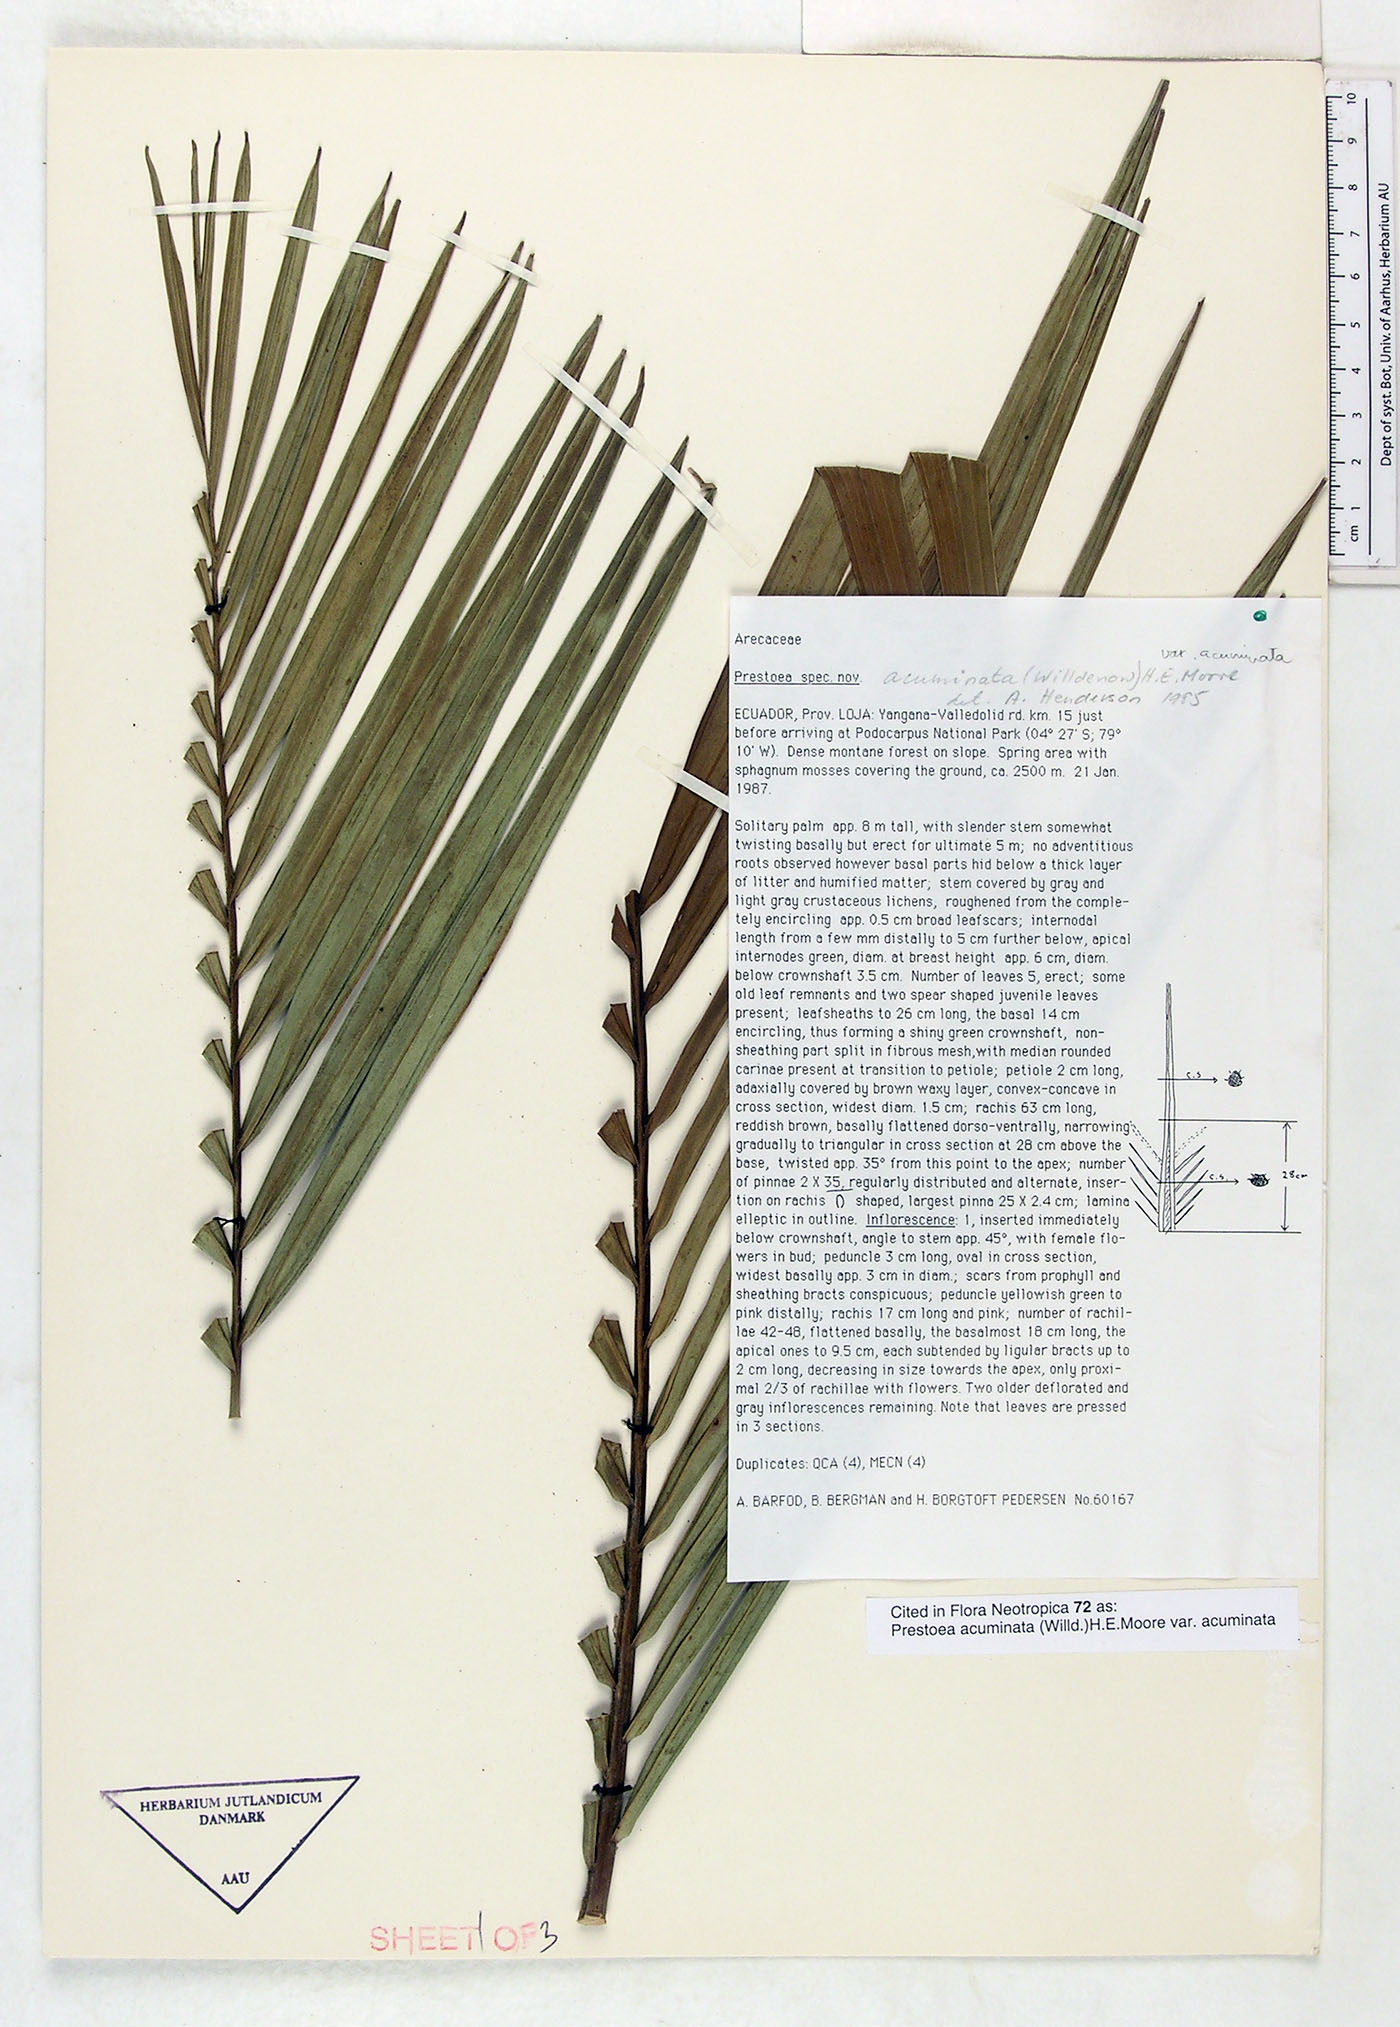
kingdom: Plantae
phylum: Tracheophyta
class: Liliopsida
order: Arecales
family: Arecaceae
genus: Prestoea
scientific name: Prestoea acuminata
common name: Sierran palm
